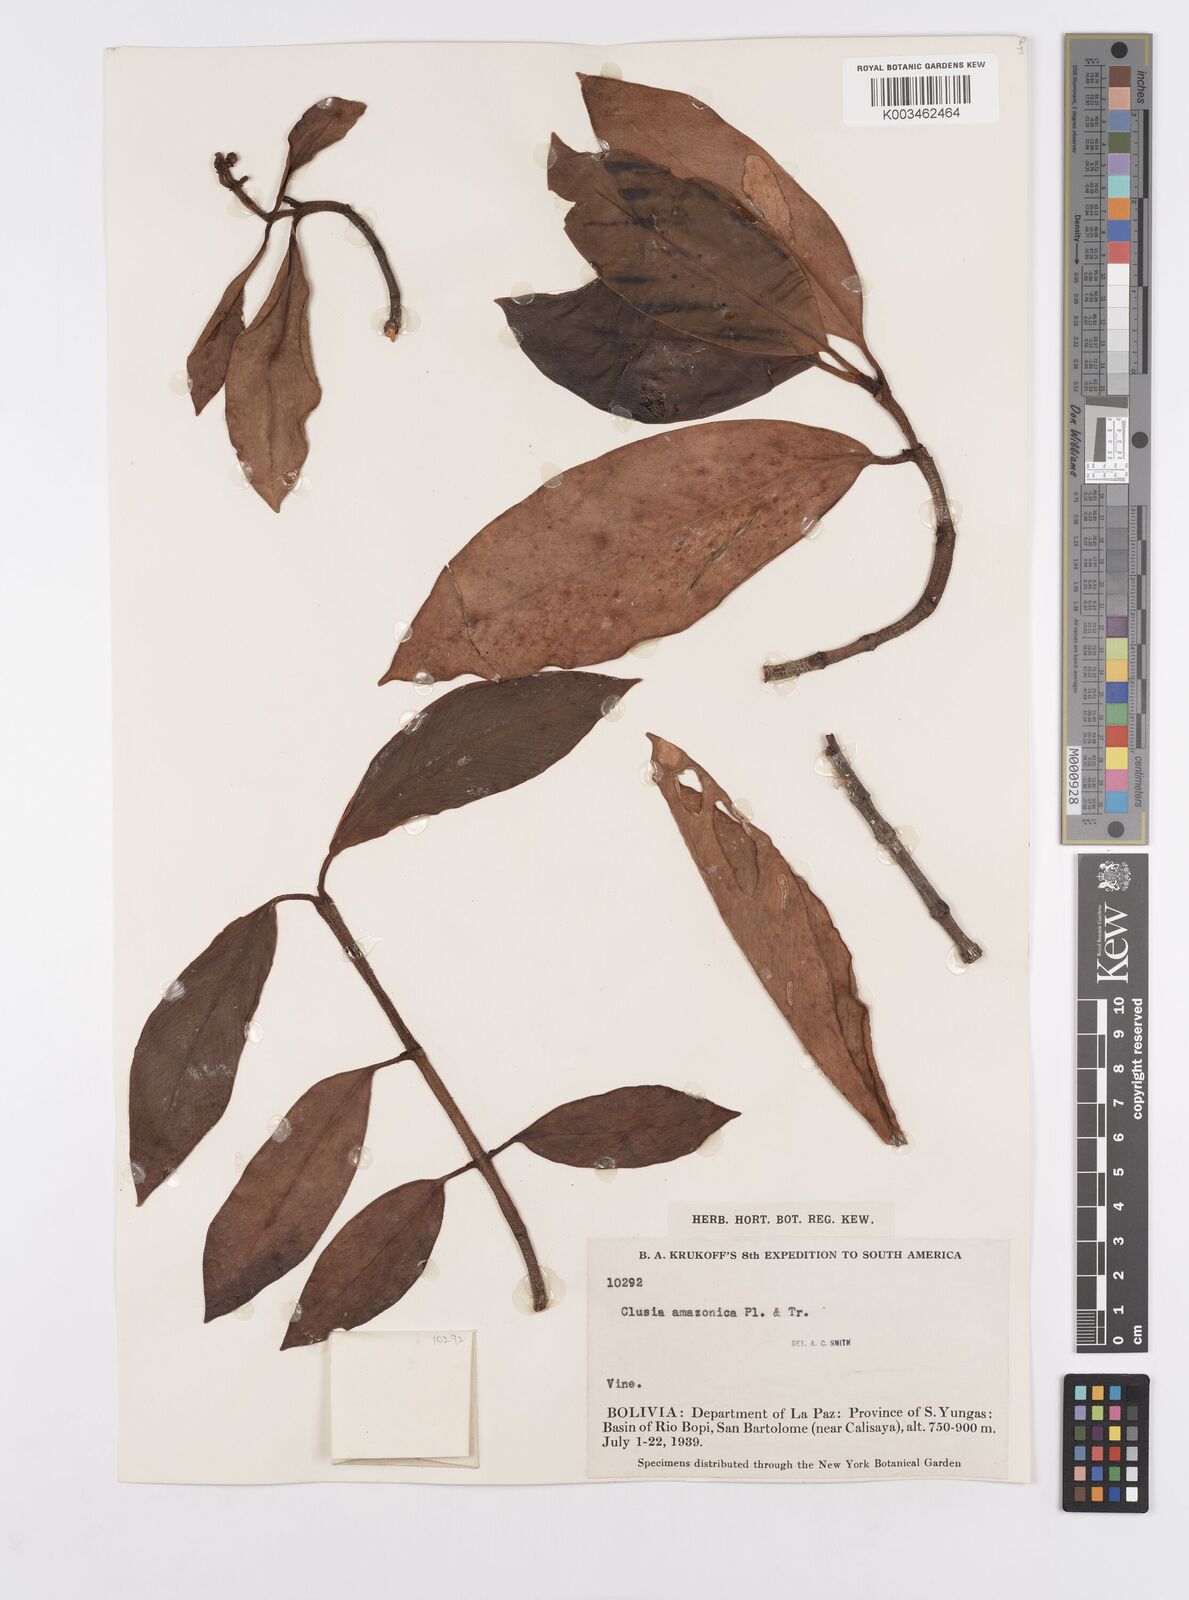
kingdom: Plantae
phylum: Tracheophyta
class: Magnoliopsida
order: Malpighiales
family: Clusiaceae
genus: Clusia
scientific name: Clusia amazonica
